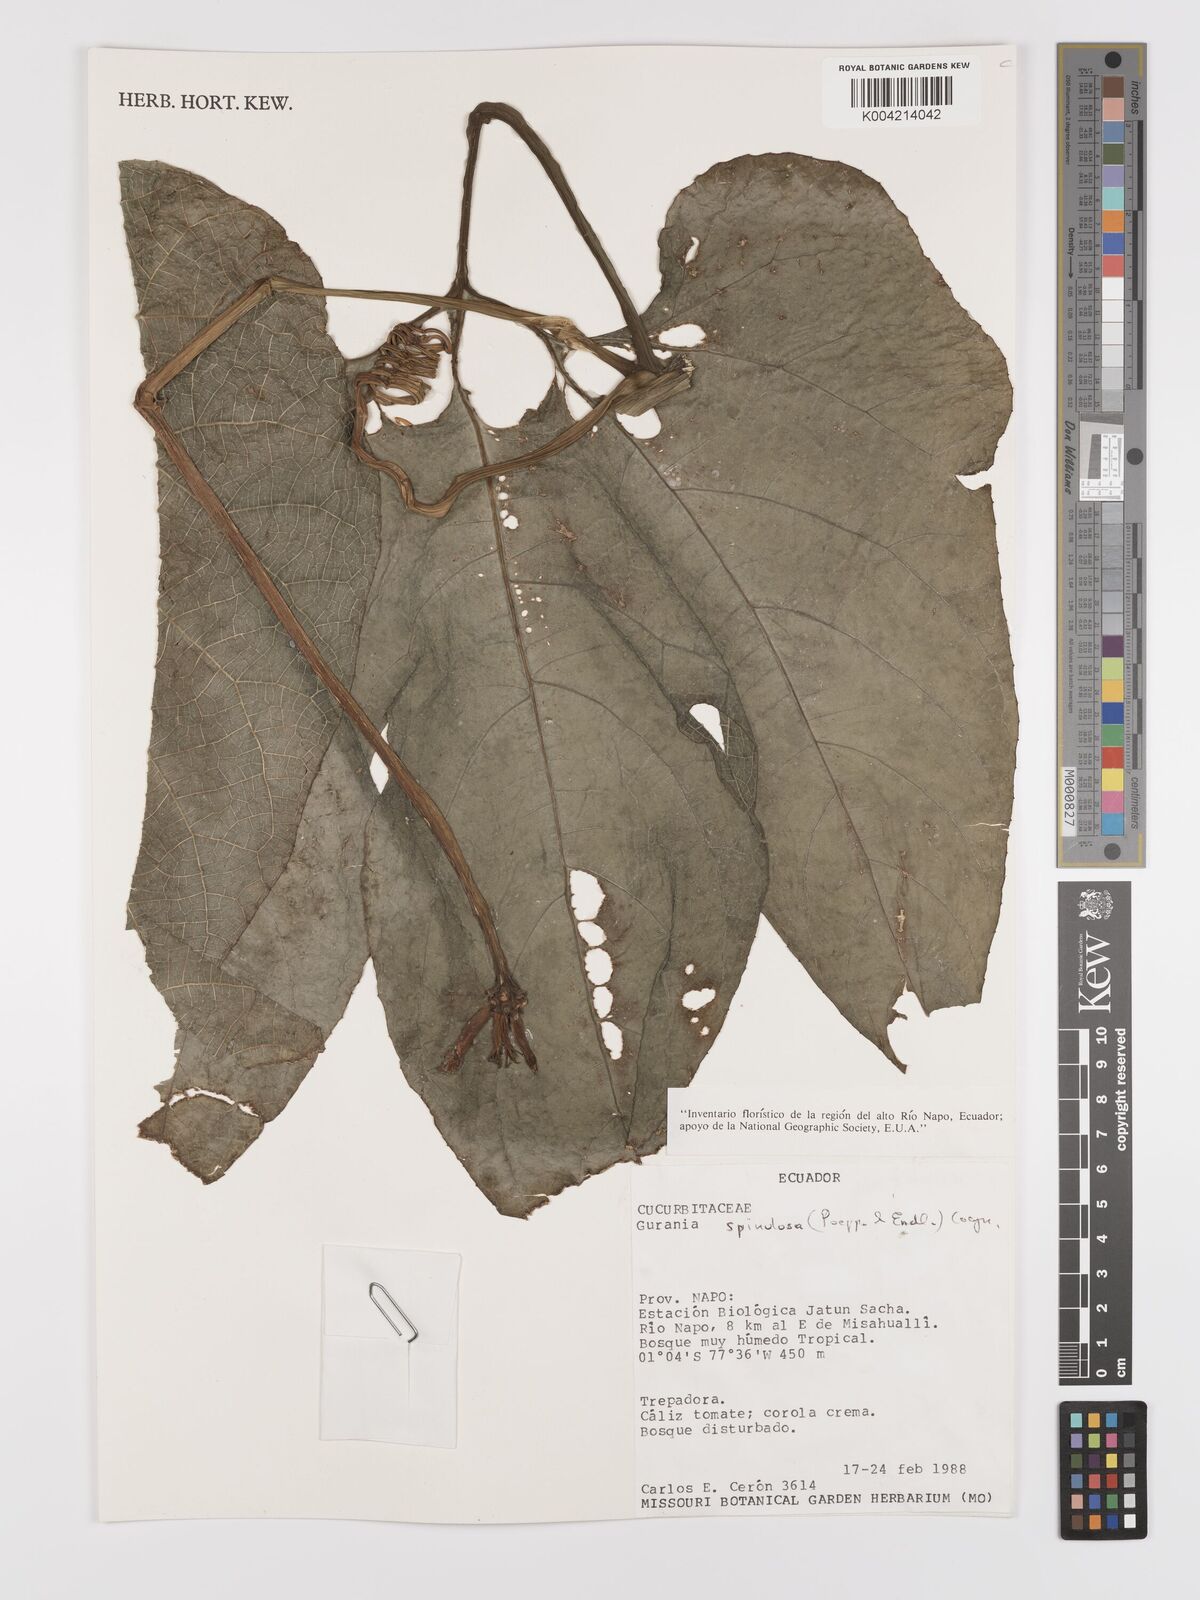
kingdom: Plantae
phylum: Tracheophyta
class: Magnoliopsida
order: Cucurbitales
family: Cucurbitaceae
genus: Gurania
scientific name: Gurania lobata
